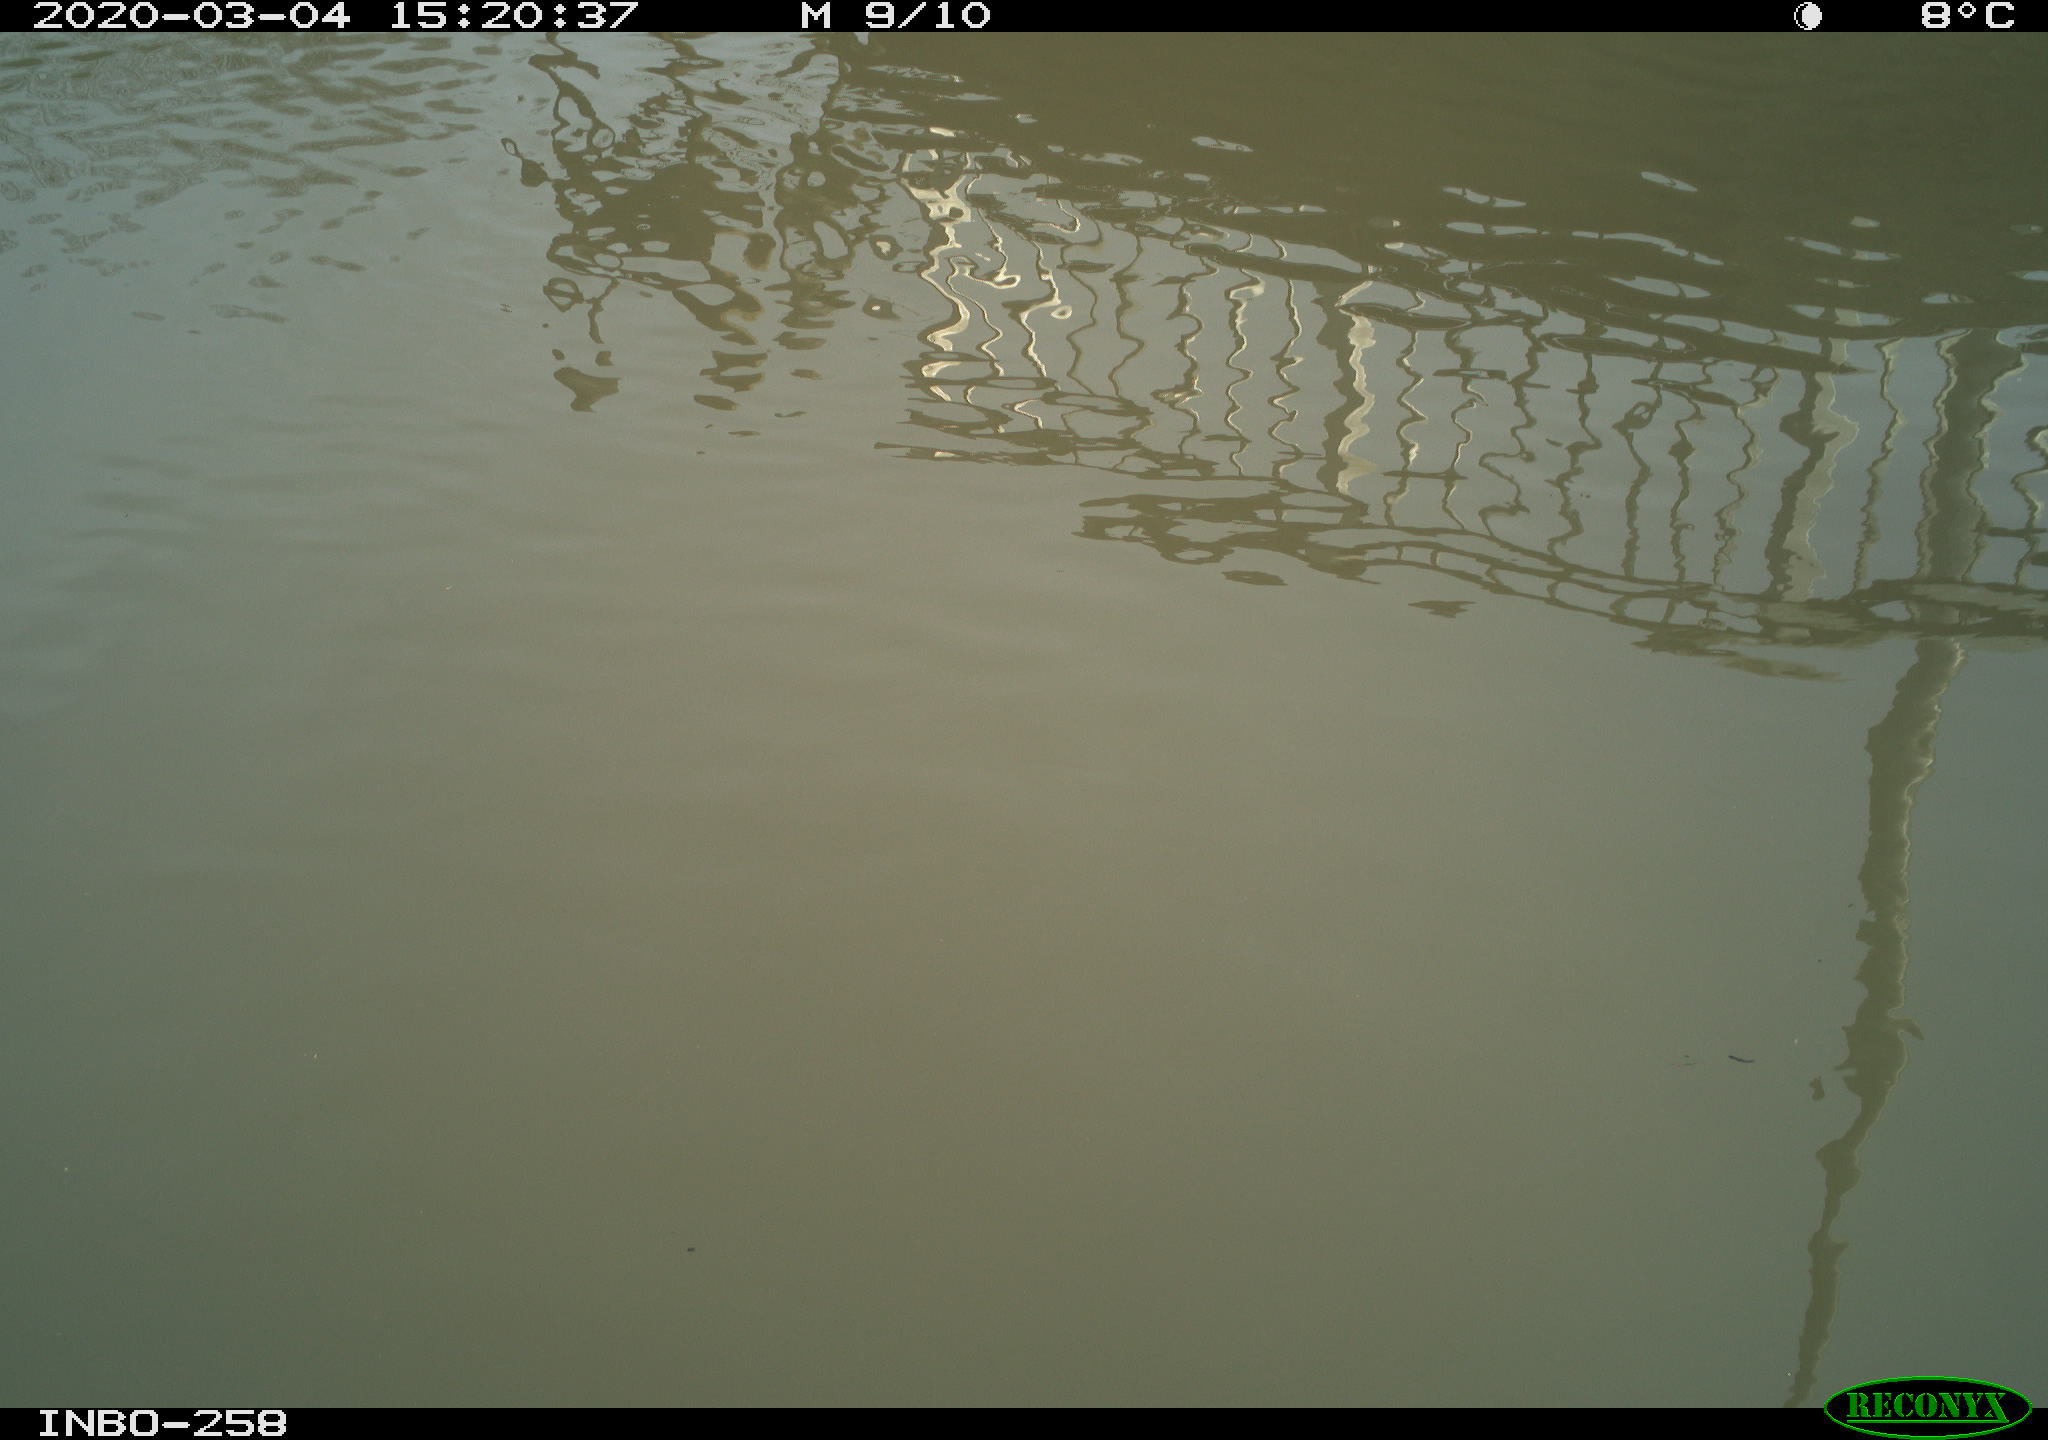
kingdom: Animalia
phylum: Chordata
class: Aves
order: Gruiformes
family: Rallidae
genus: Gallinula
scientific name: Gallinula chloropus
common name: Common moorhen
